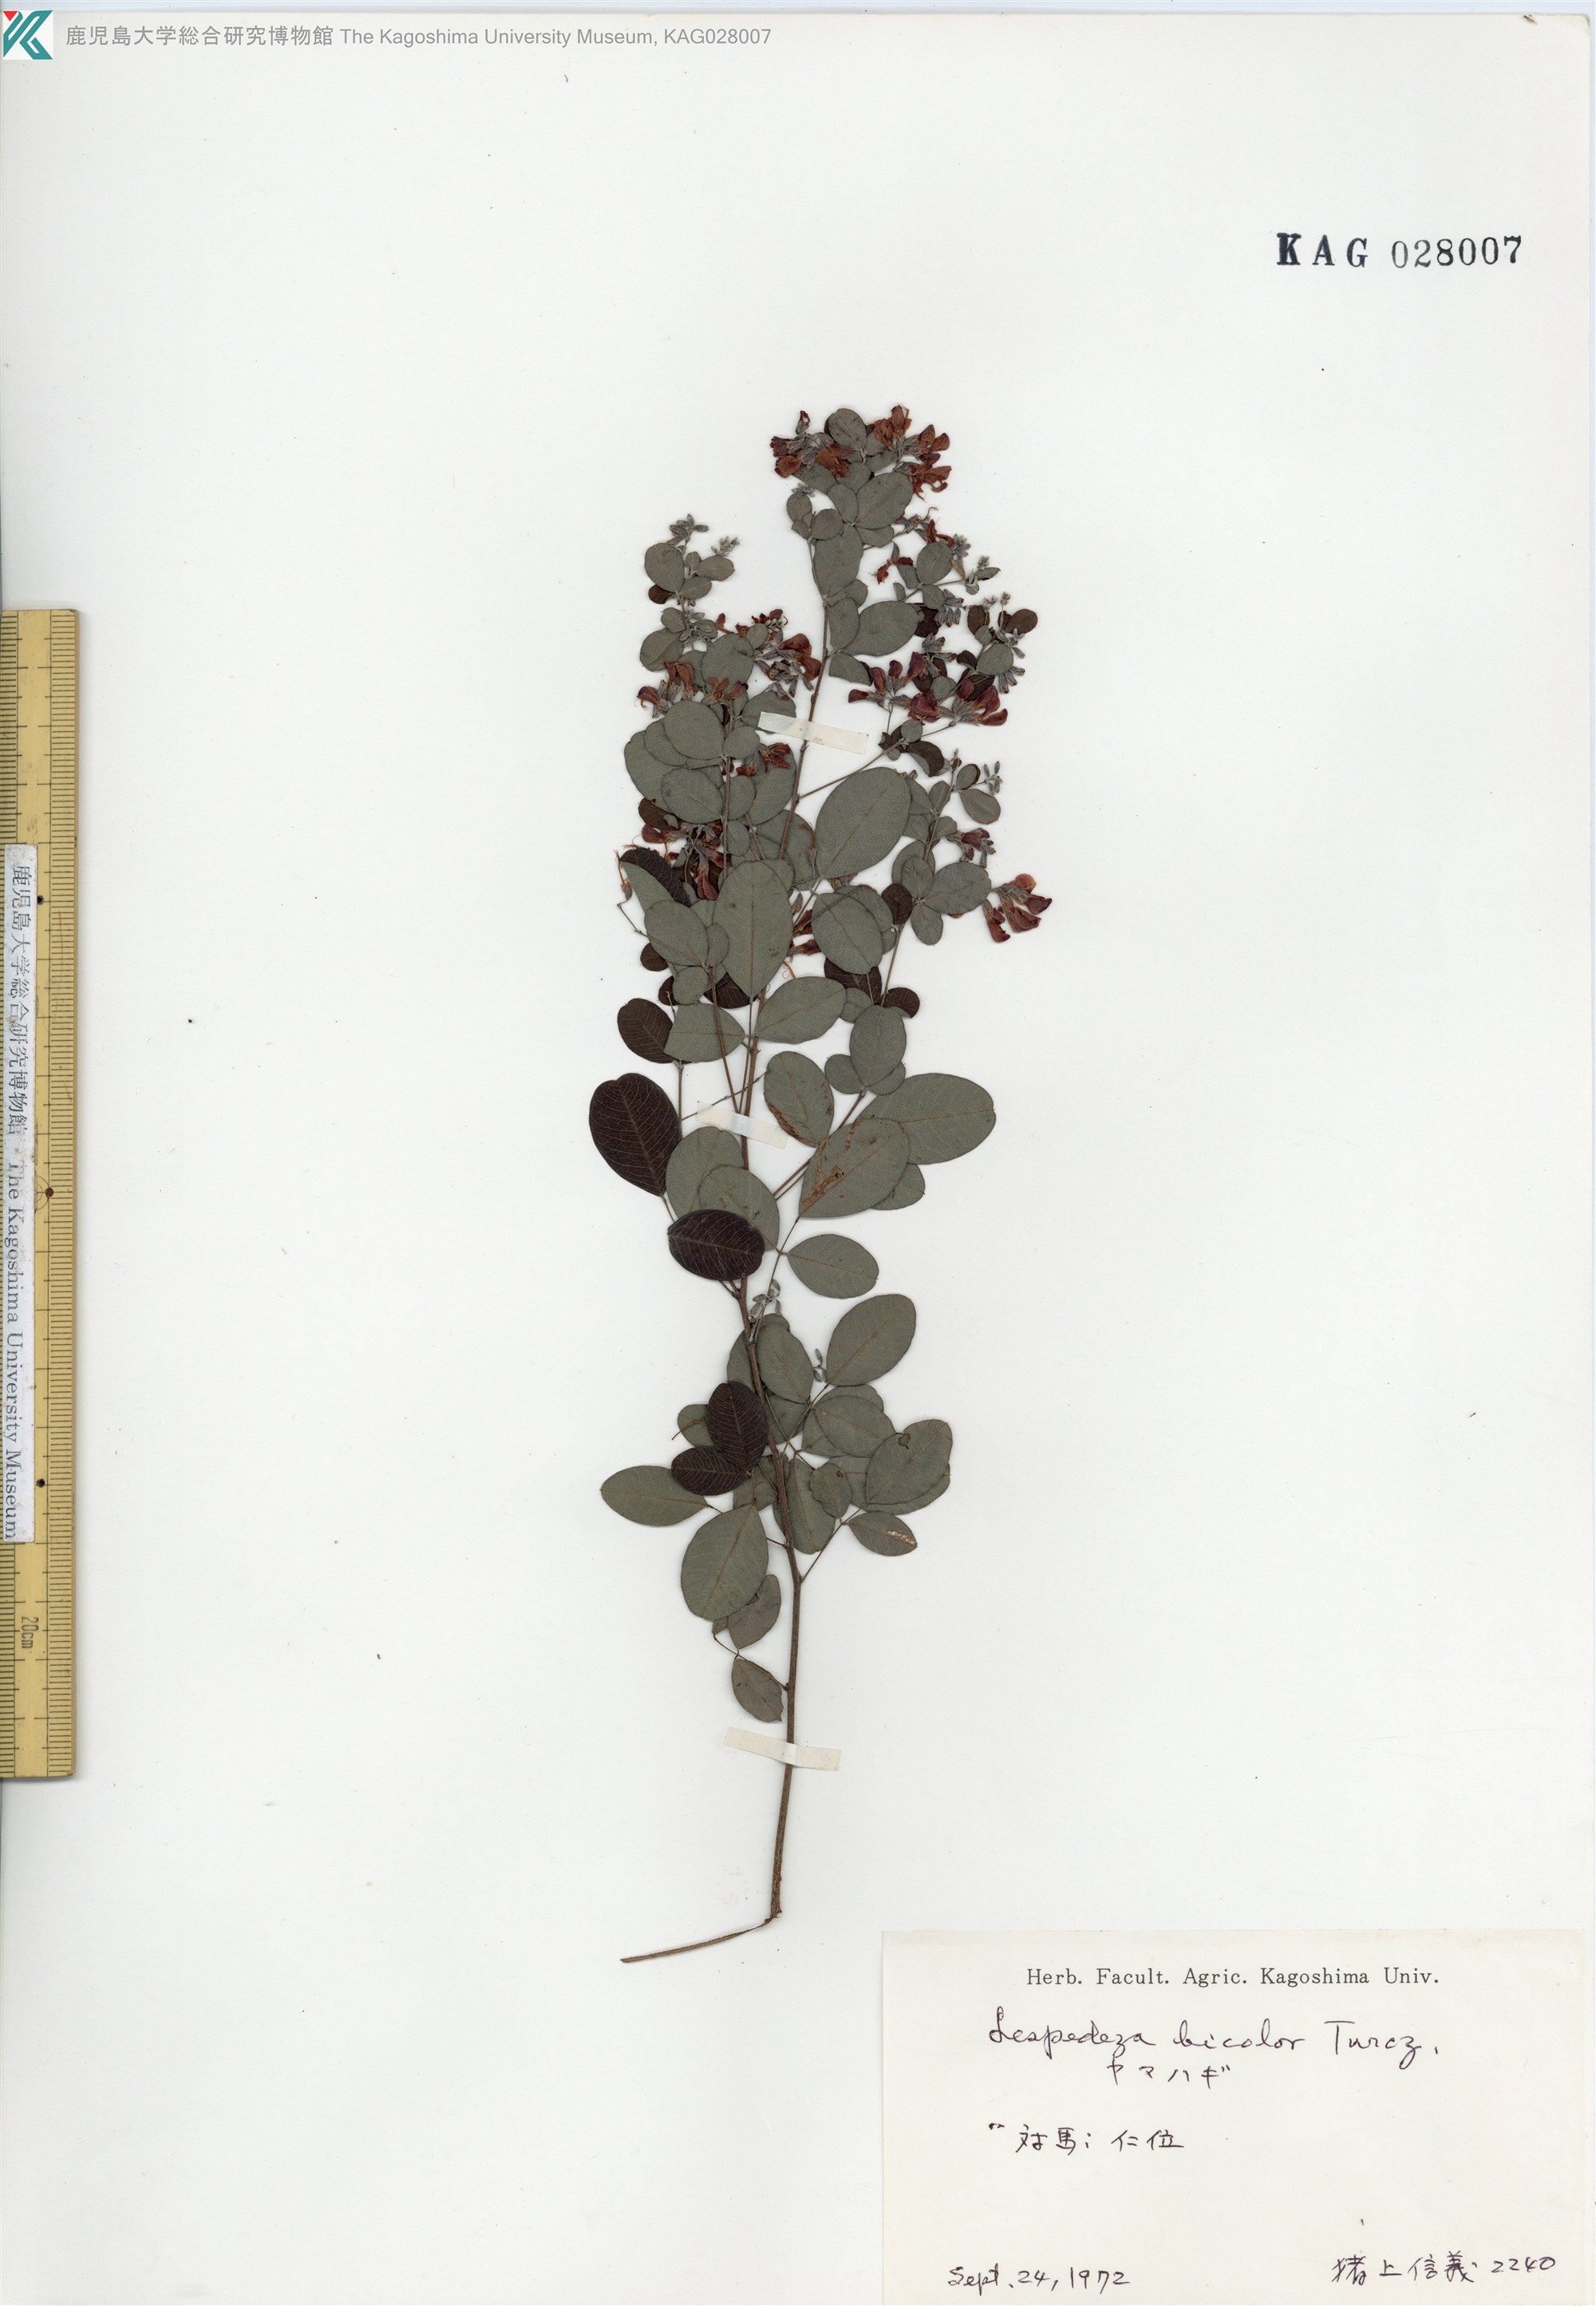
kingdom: Plantae
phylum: Tracheophyta
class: Magnoliopsida
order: Fabales
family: Fabaceae
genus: Lespedeza
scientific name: Lespedeza bicolor
